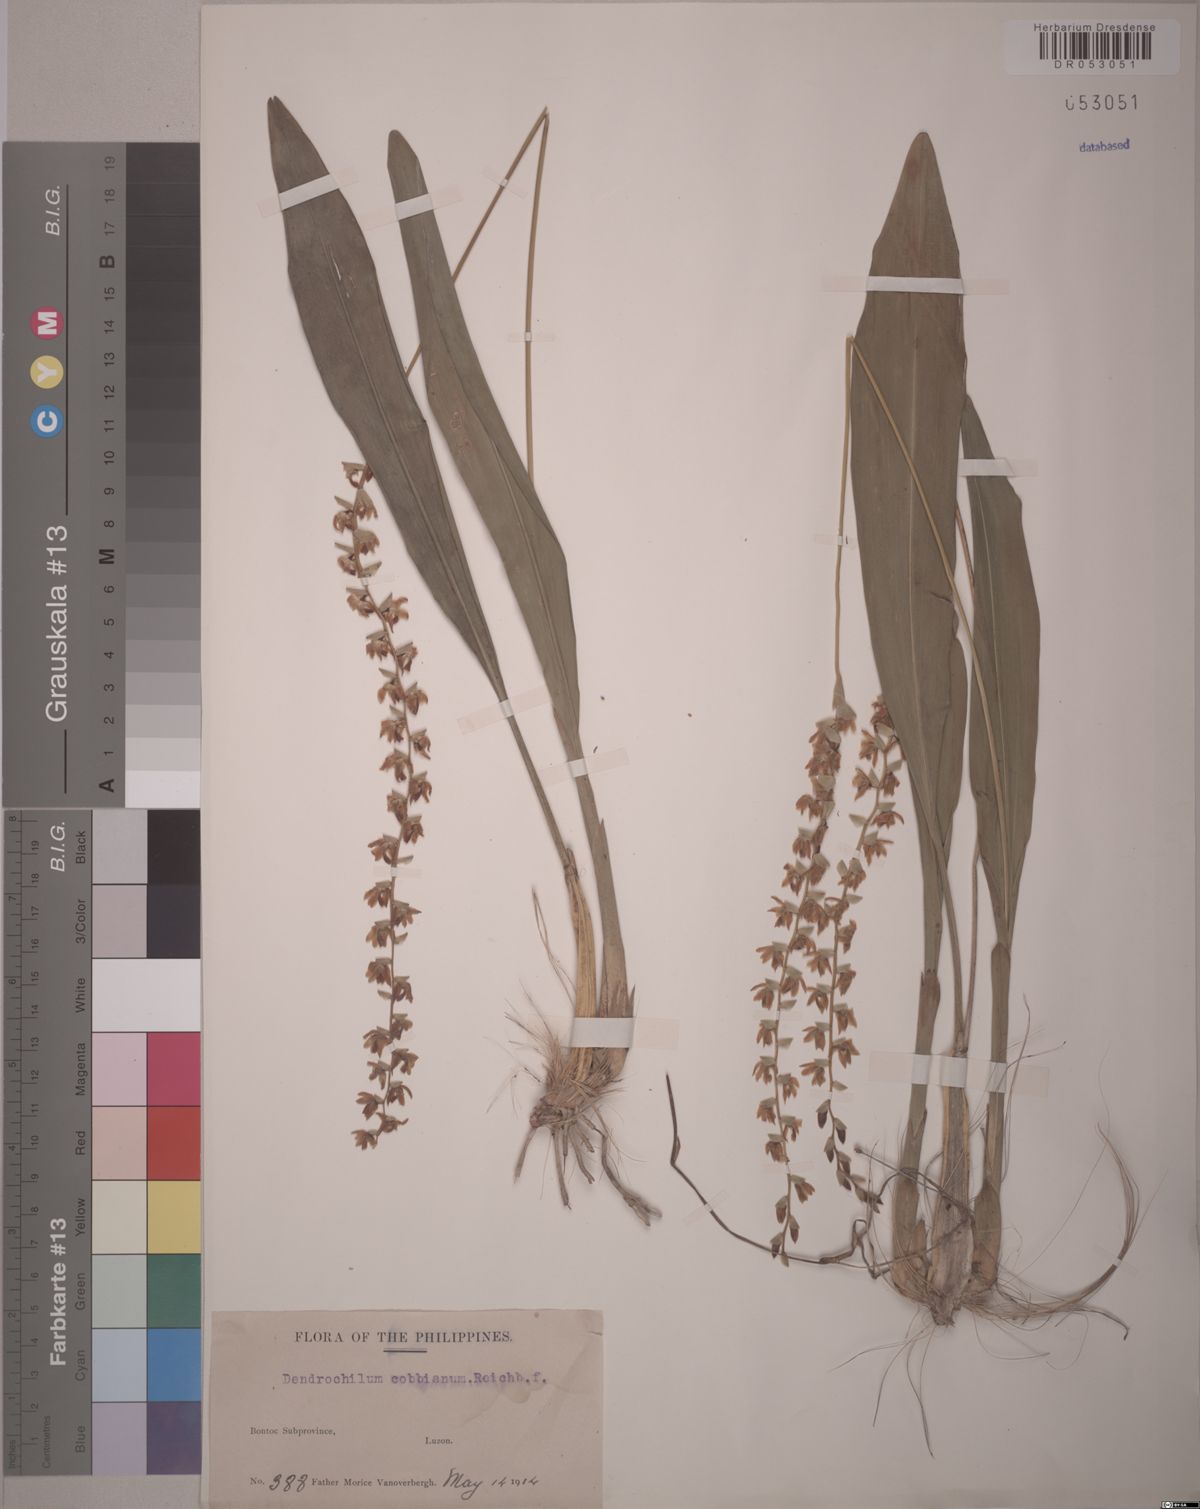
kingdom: Plantae
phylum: Tracheophyta
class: Liliopsida
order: Asparagales
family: Orchidaceae
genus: Coelogyne
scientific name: Coelogyne cobbiana
